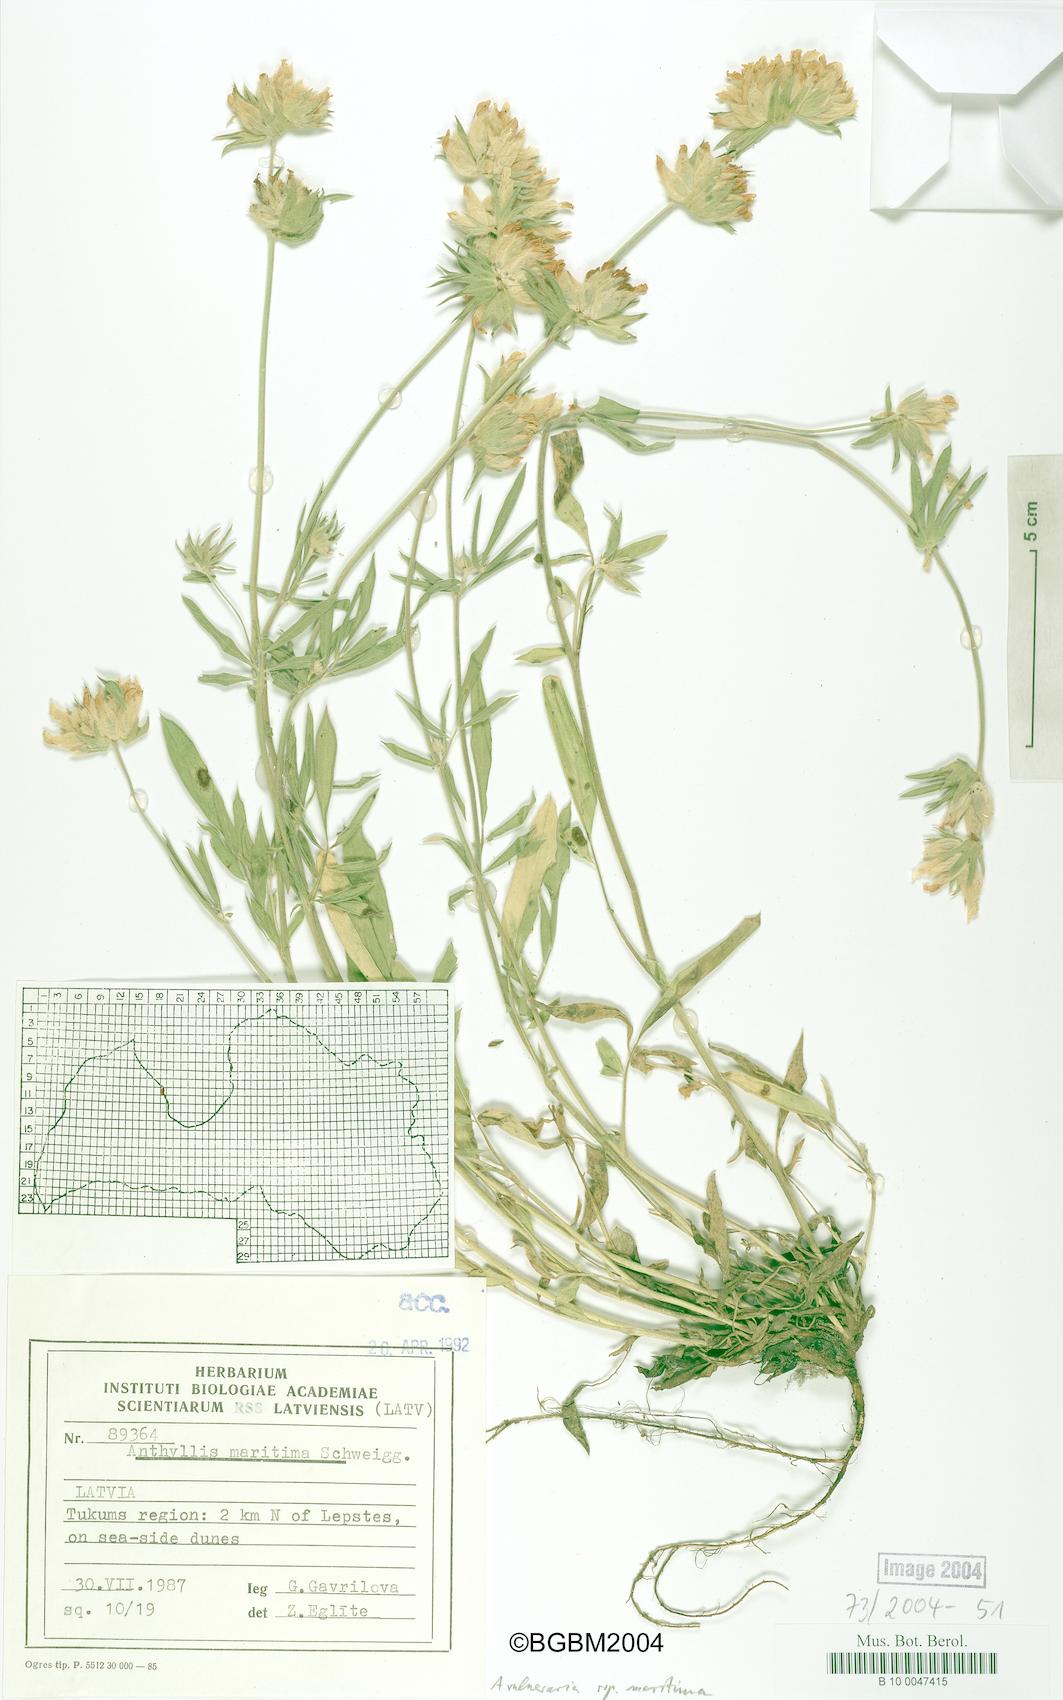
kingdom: Plantae
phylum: Tracheophyta
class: Magnoliopsida
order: Fabales
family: Fabaceae
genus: Anthyllis
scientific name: Anthyllis vulneraria
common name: Kidney vetch
